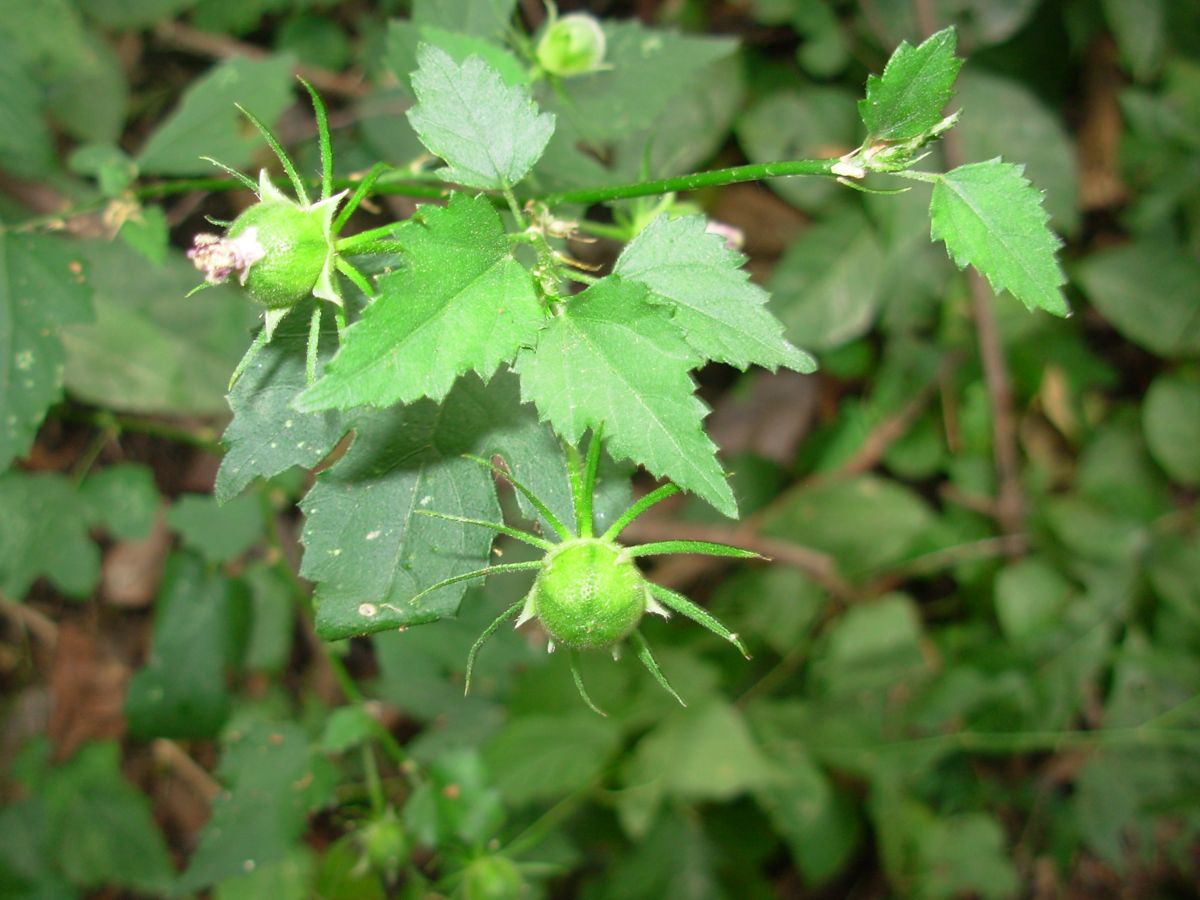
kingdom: Plantae
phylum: Tracheophyta
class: Magnoliopsida
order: Malvales
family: Malvaceae
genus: Hibiscus
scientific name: Hibiscus
